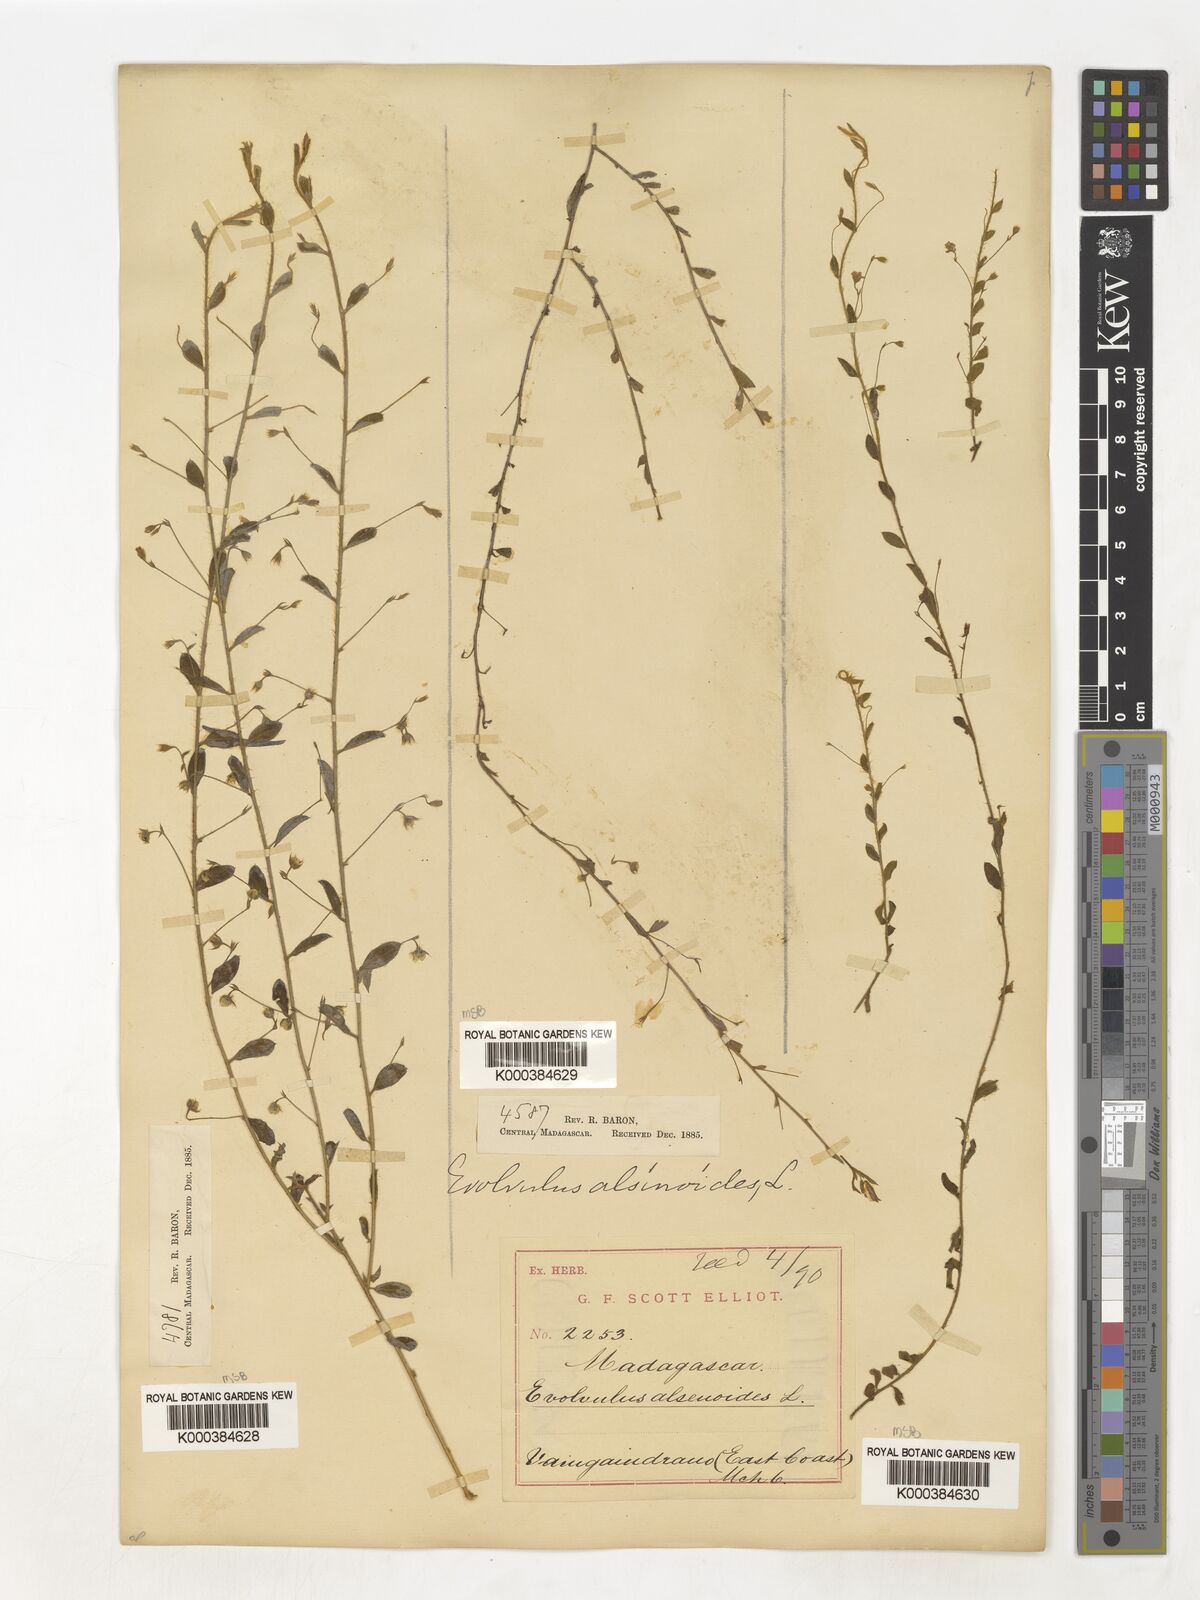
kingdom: Plantae
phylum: Tracheophyta
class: Magnoliopsida
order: Solanales
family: Convolvulaceae
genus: Evolvulus
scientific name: Evolvulus alsinoides
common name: Slender dwarf morning-glory
